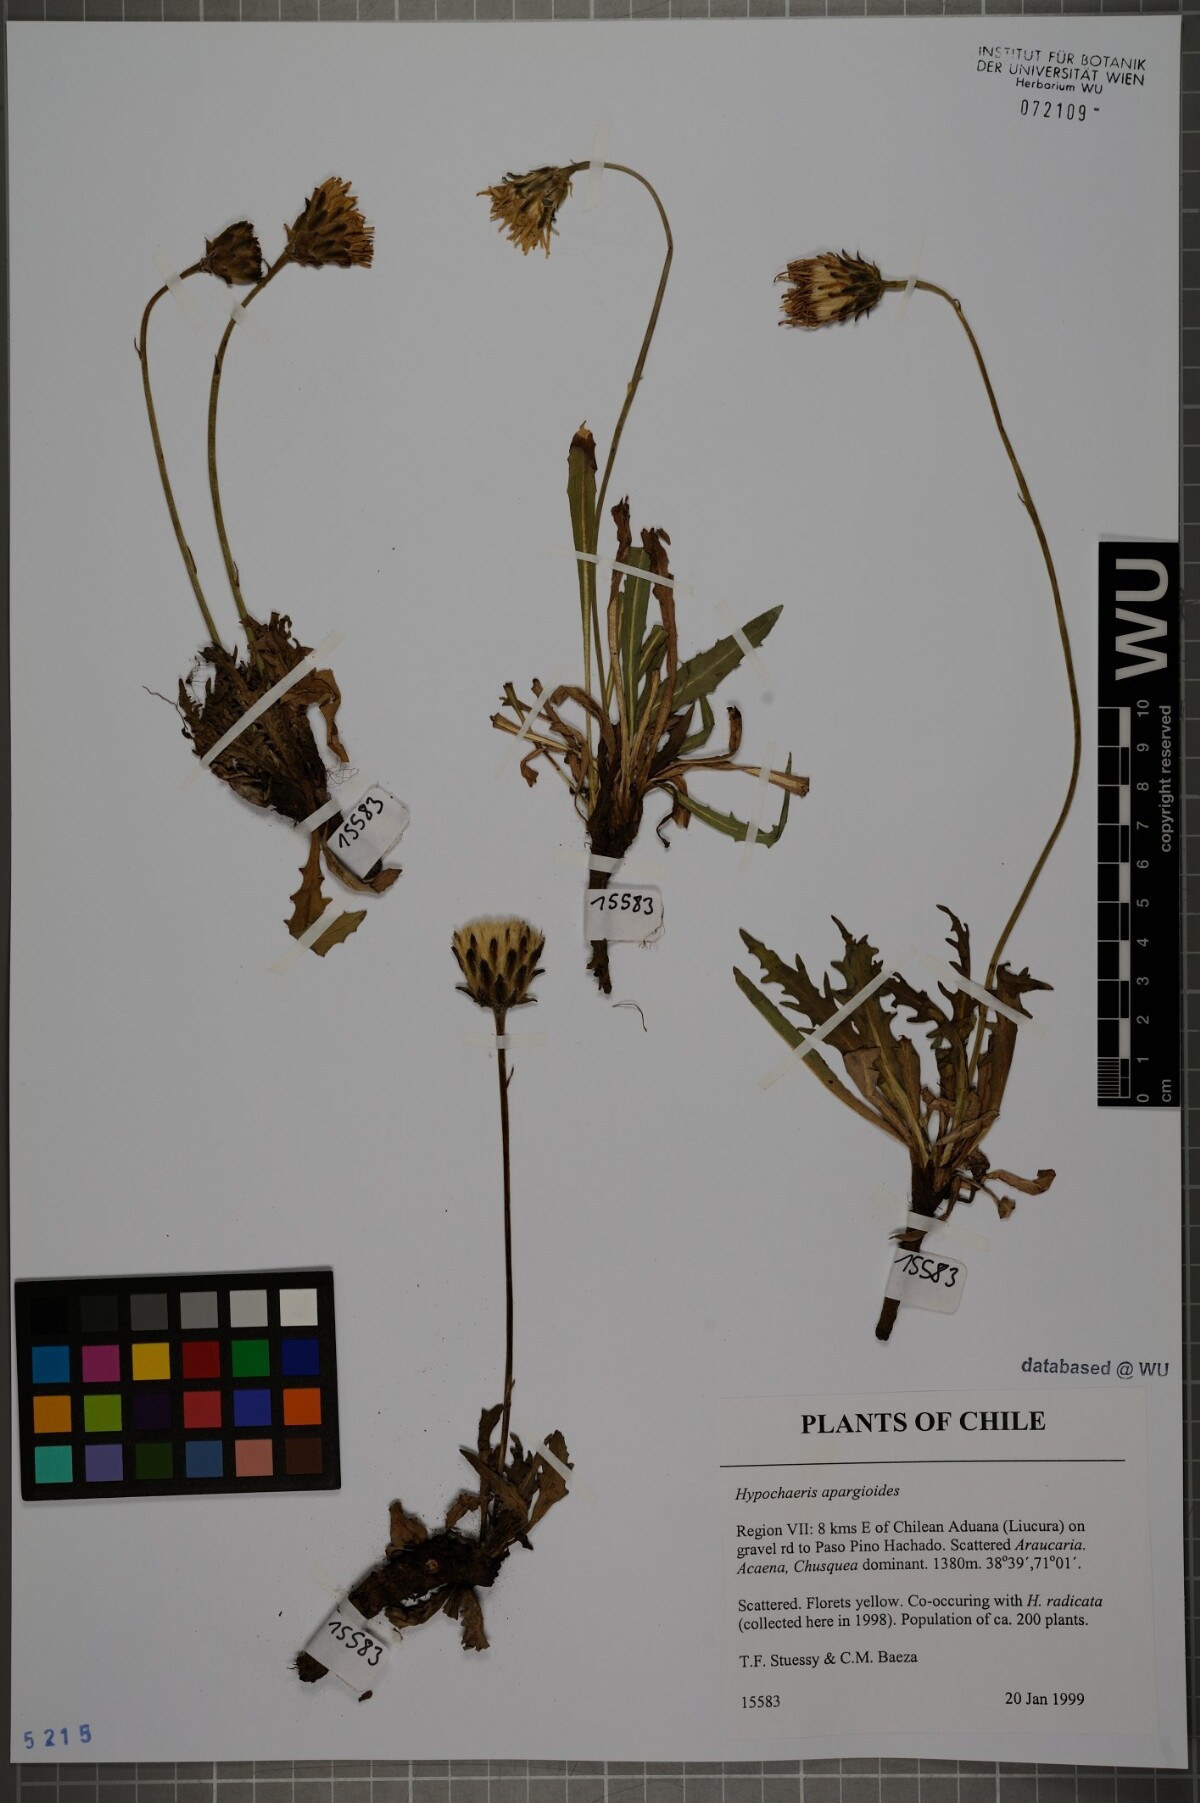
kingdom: Plantae
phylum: Tracheophyta
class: Magnoliopsida
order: Asterales
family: Asteraceae
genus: Hypochaeris
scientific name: Hypochaeris apargioides
